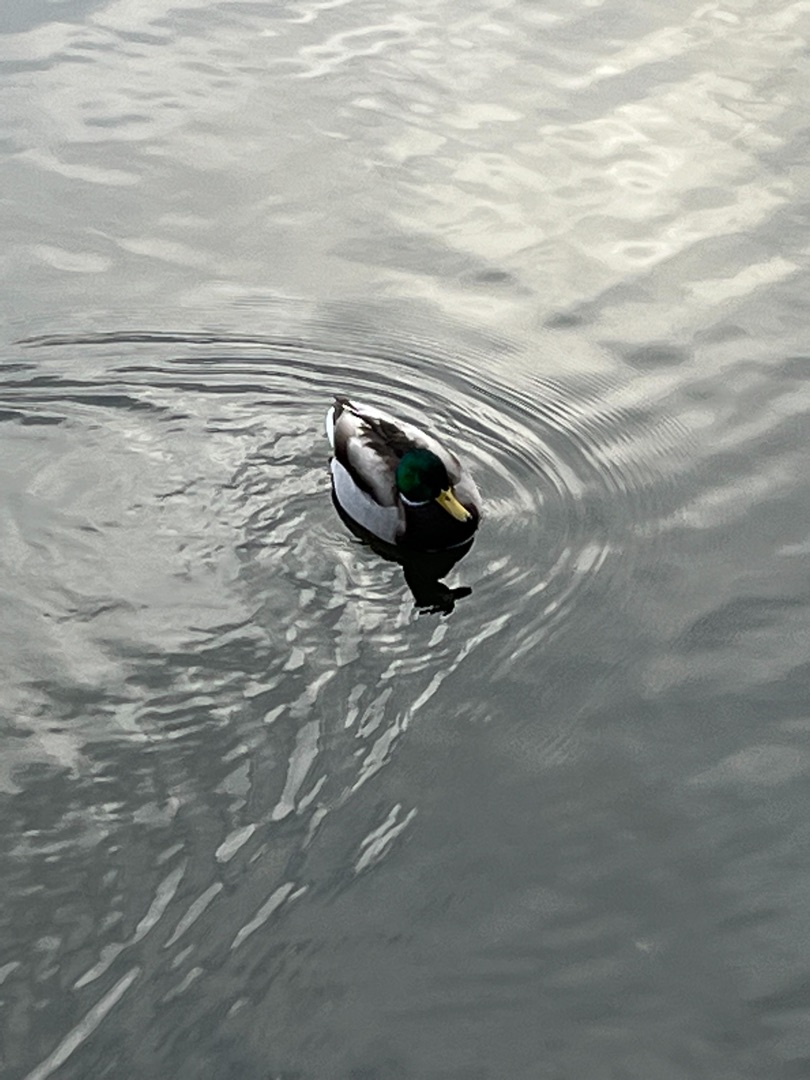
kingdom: Animalia
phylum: Chordata
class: Aves
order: Anseriformes
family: Anatidae
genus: Anas
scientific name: Anas platyrhynchos
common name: Gråand
